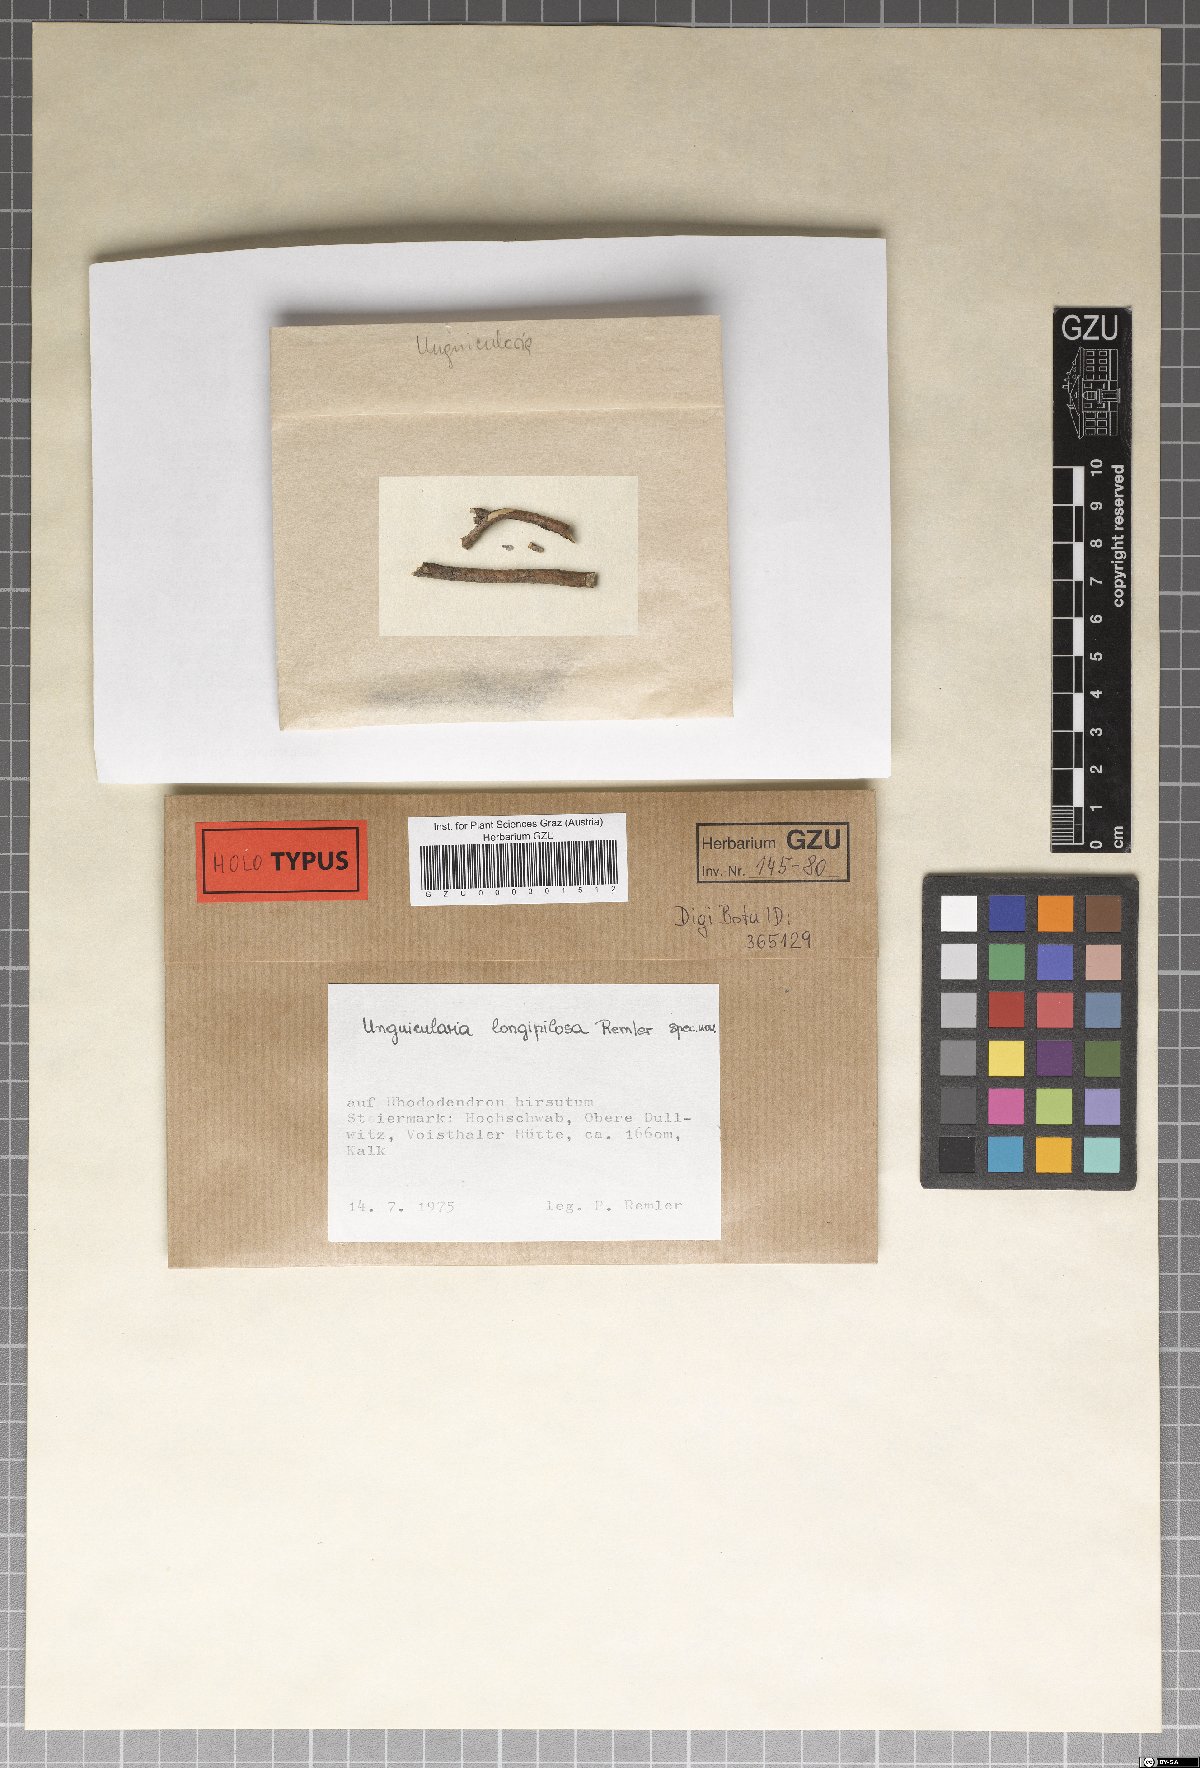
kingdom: Fungi
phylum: Ascomycota
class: Leotiomycetes
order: Helotiales
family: Hyaloscyphaceae
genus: Unguicularia
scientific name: Unguicularia longipilosa
